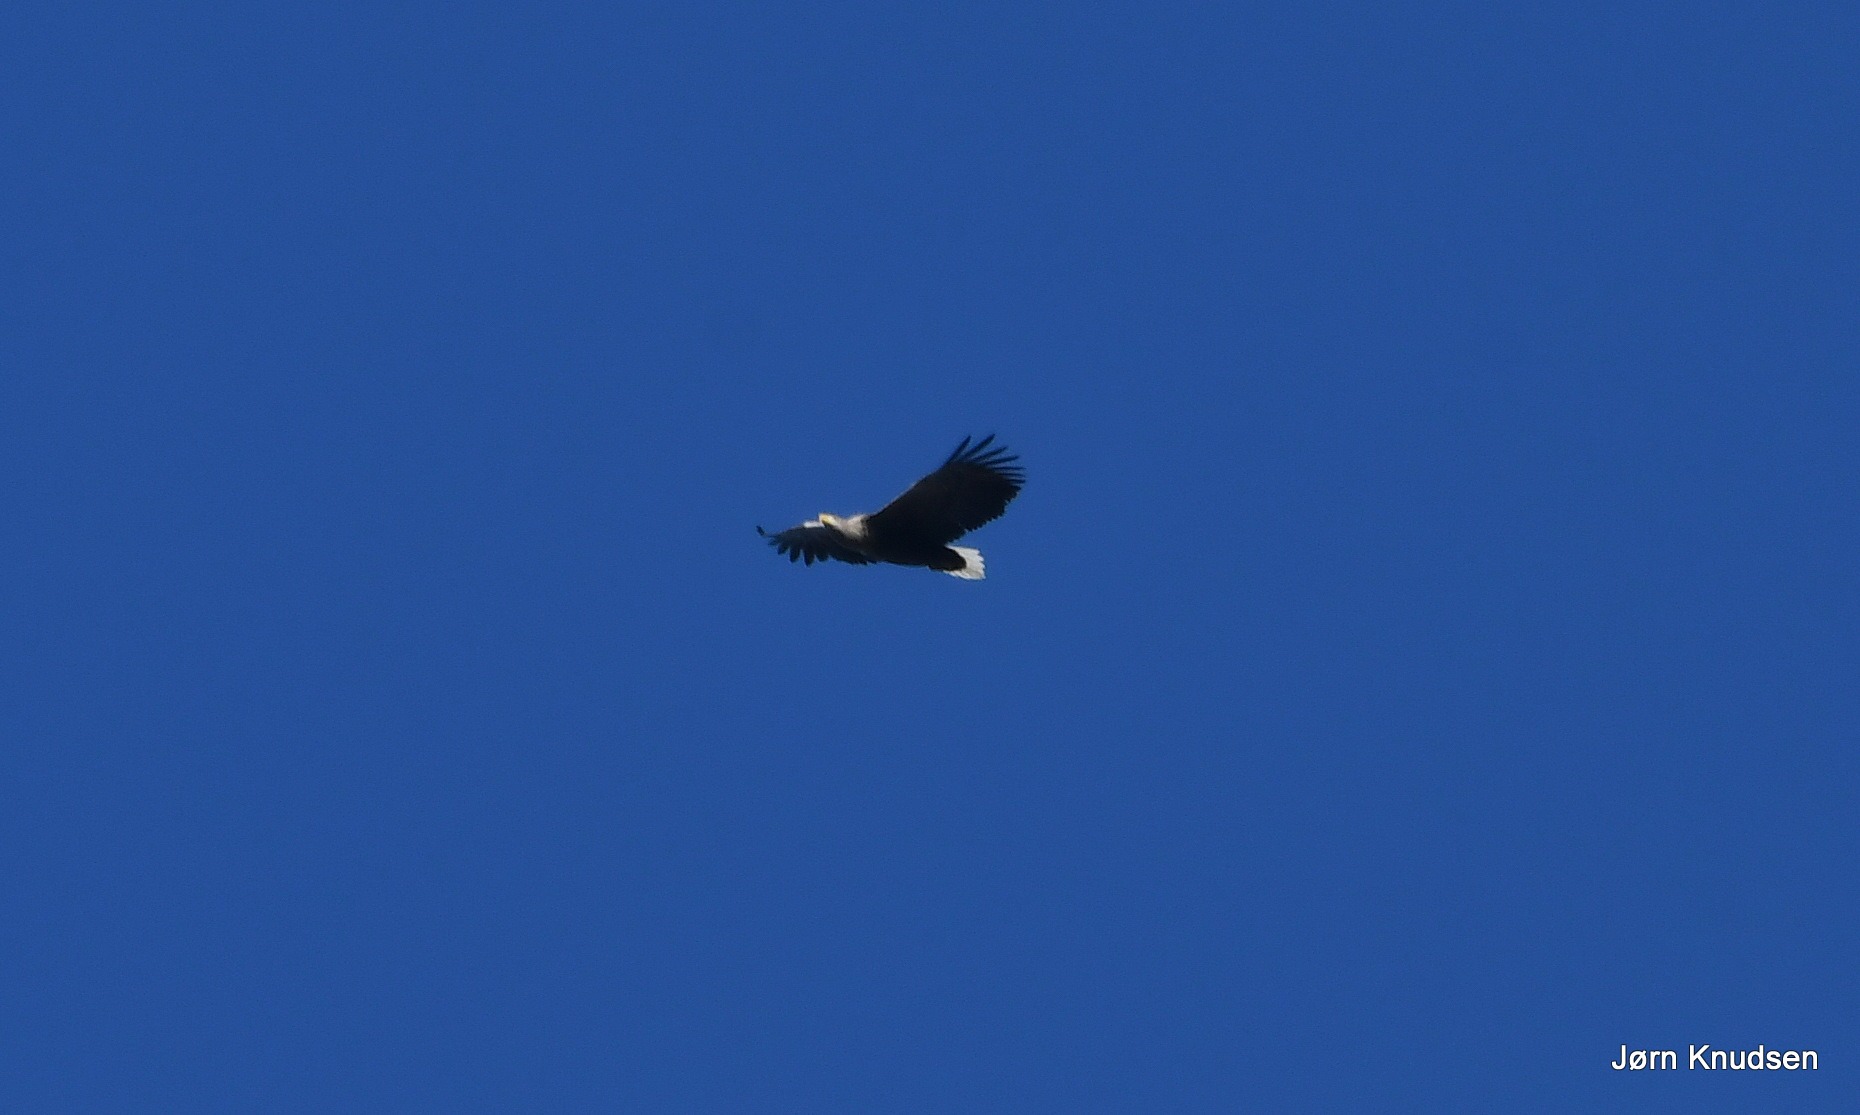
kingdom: Animalia
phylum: Chordata
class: Aves
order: Accipitriformes
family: Accipitridae
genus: Haliaeetus
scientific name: Haliaeetus albicilla
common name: Havørn
